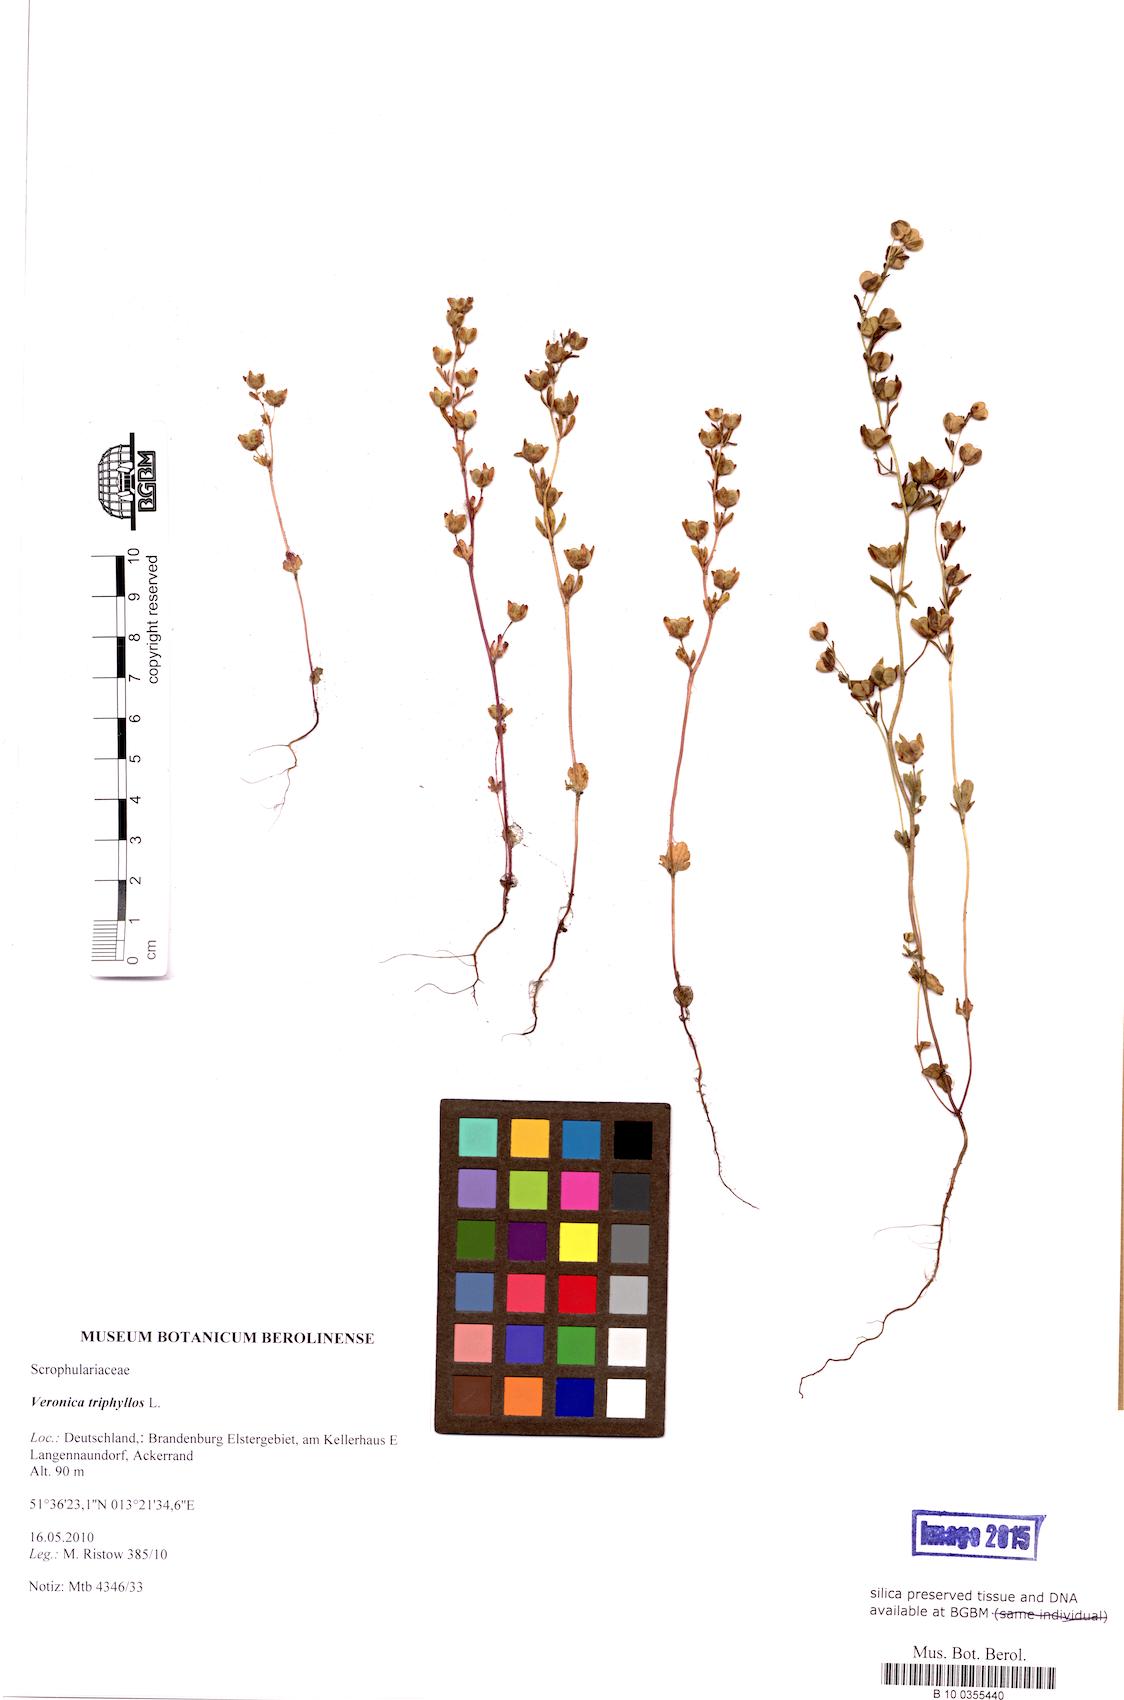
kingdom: Plantae
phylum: Tracheophyta
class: Magnoliopsida
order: Lamiales
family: Plantaginaceae
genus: Veronica
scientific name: Veronica triphyllos
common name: Fingered speedwell
